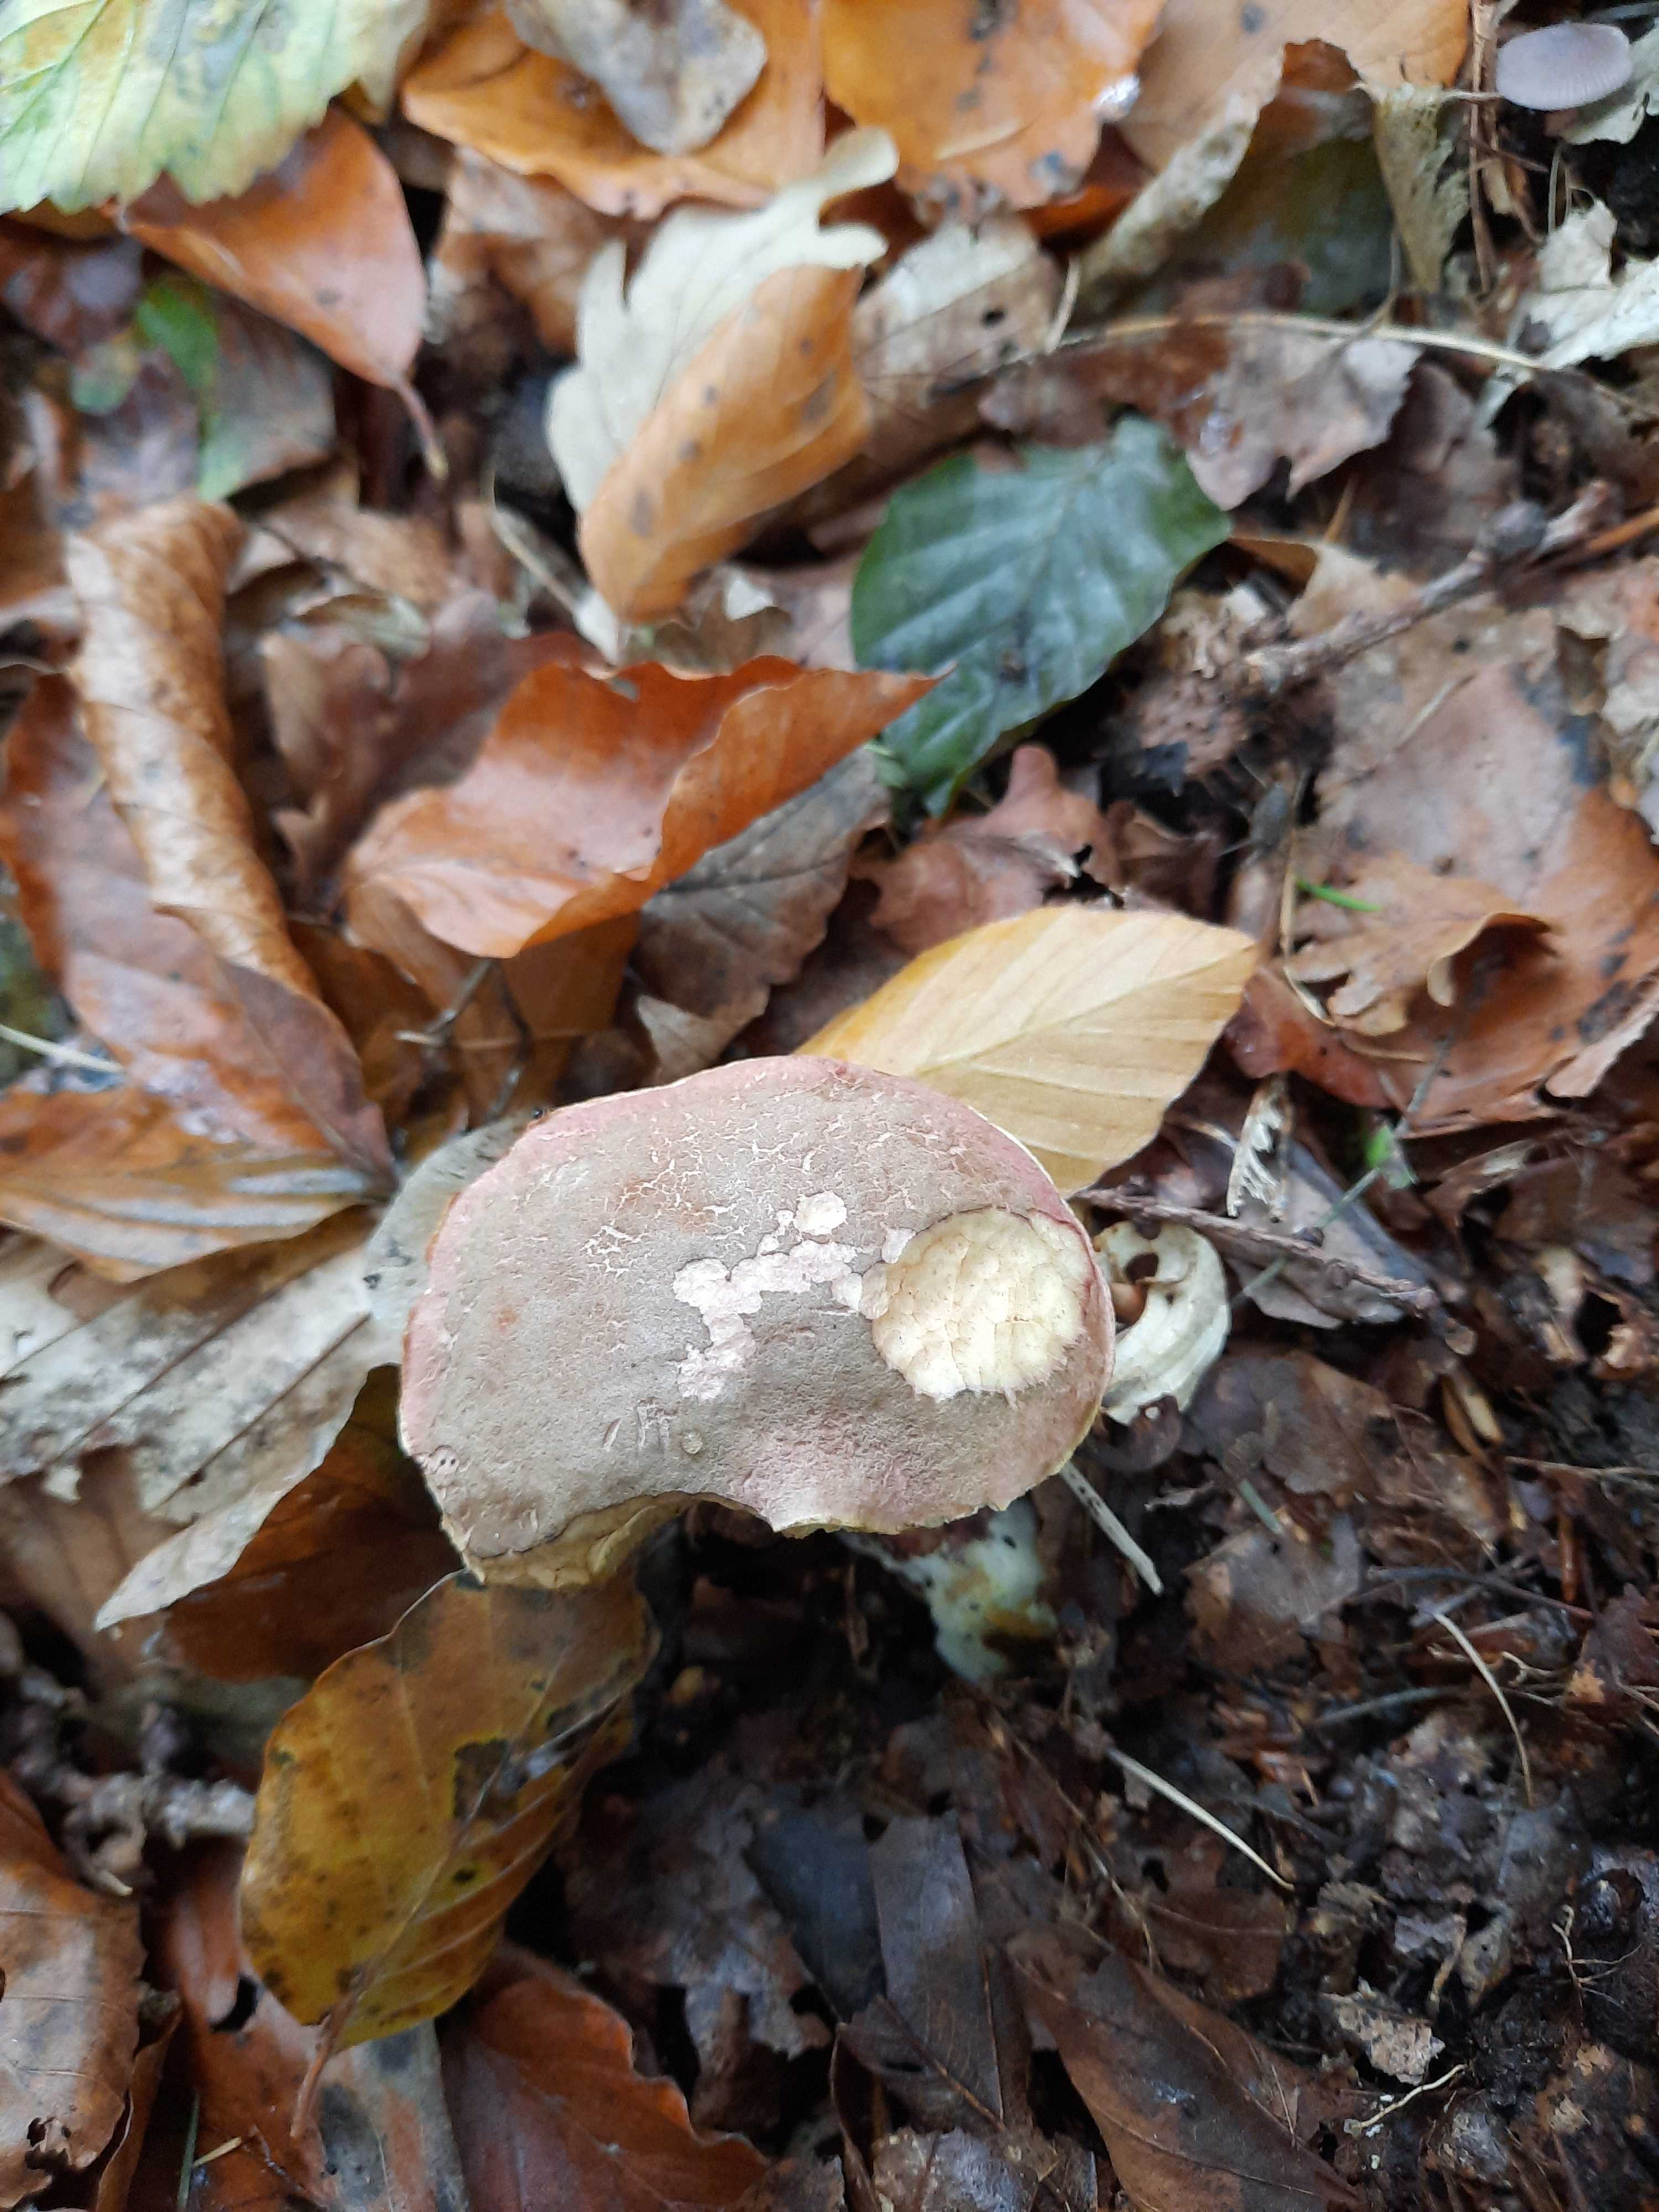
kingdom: Fungi
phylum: Basidiomycota
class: Agaricomycetes
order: Boletales
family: Boletaceae
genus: Xerocomellus
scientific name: Xerocomellus
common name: dværgrørhat
